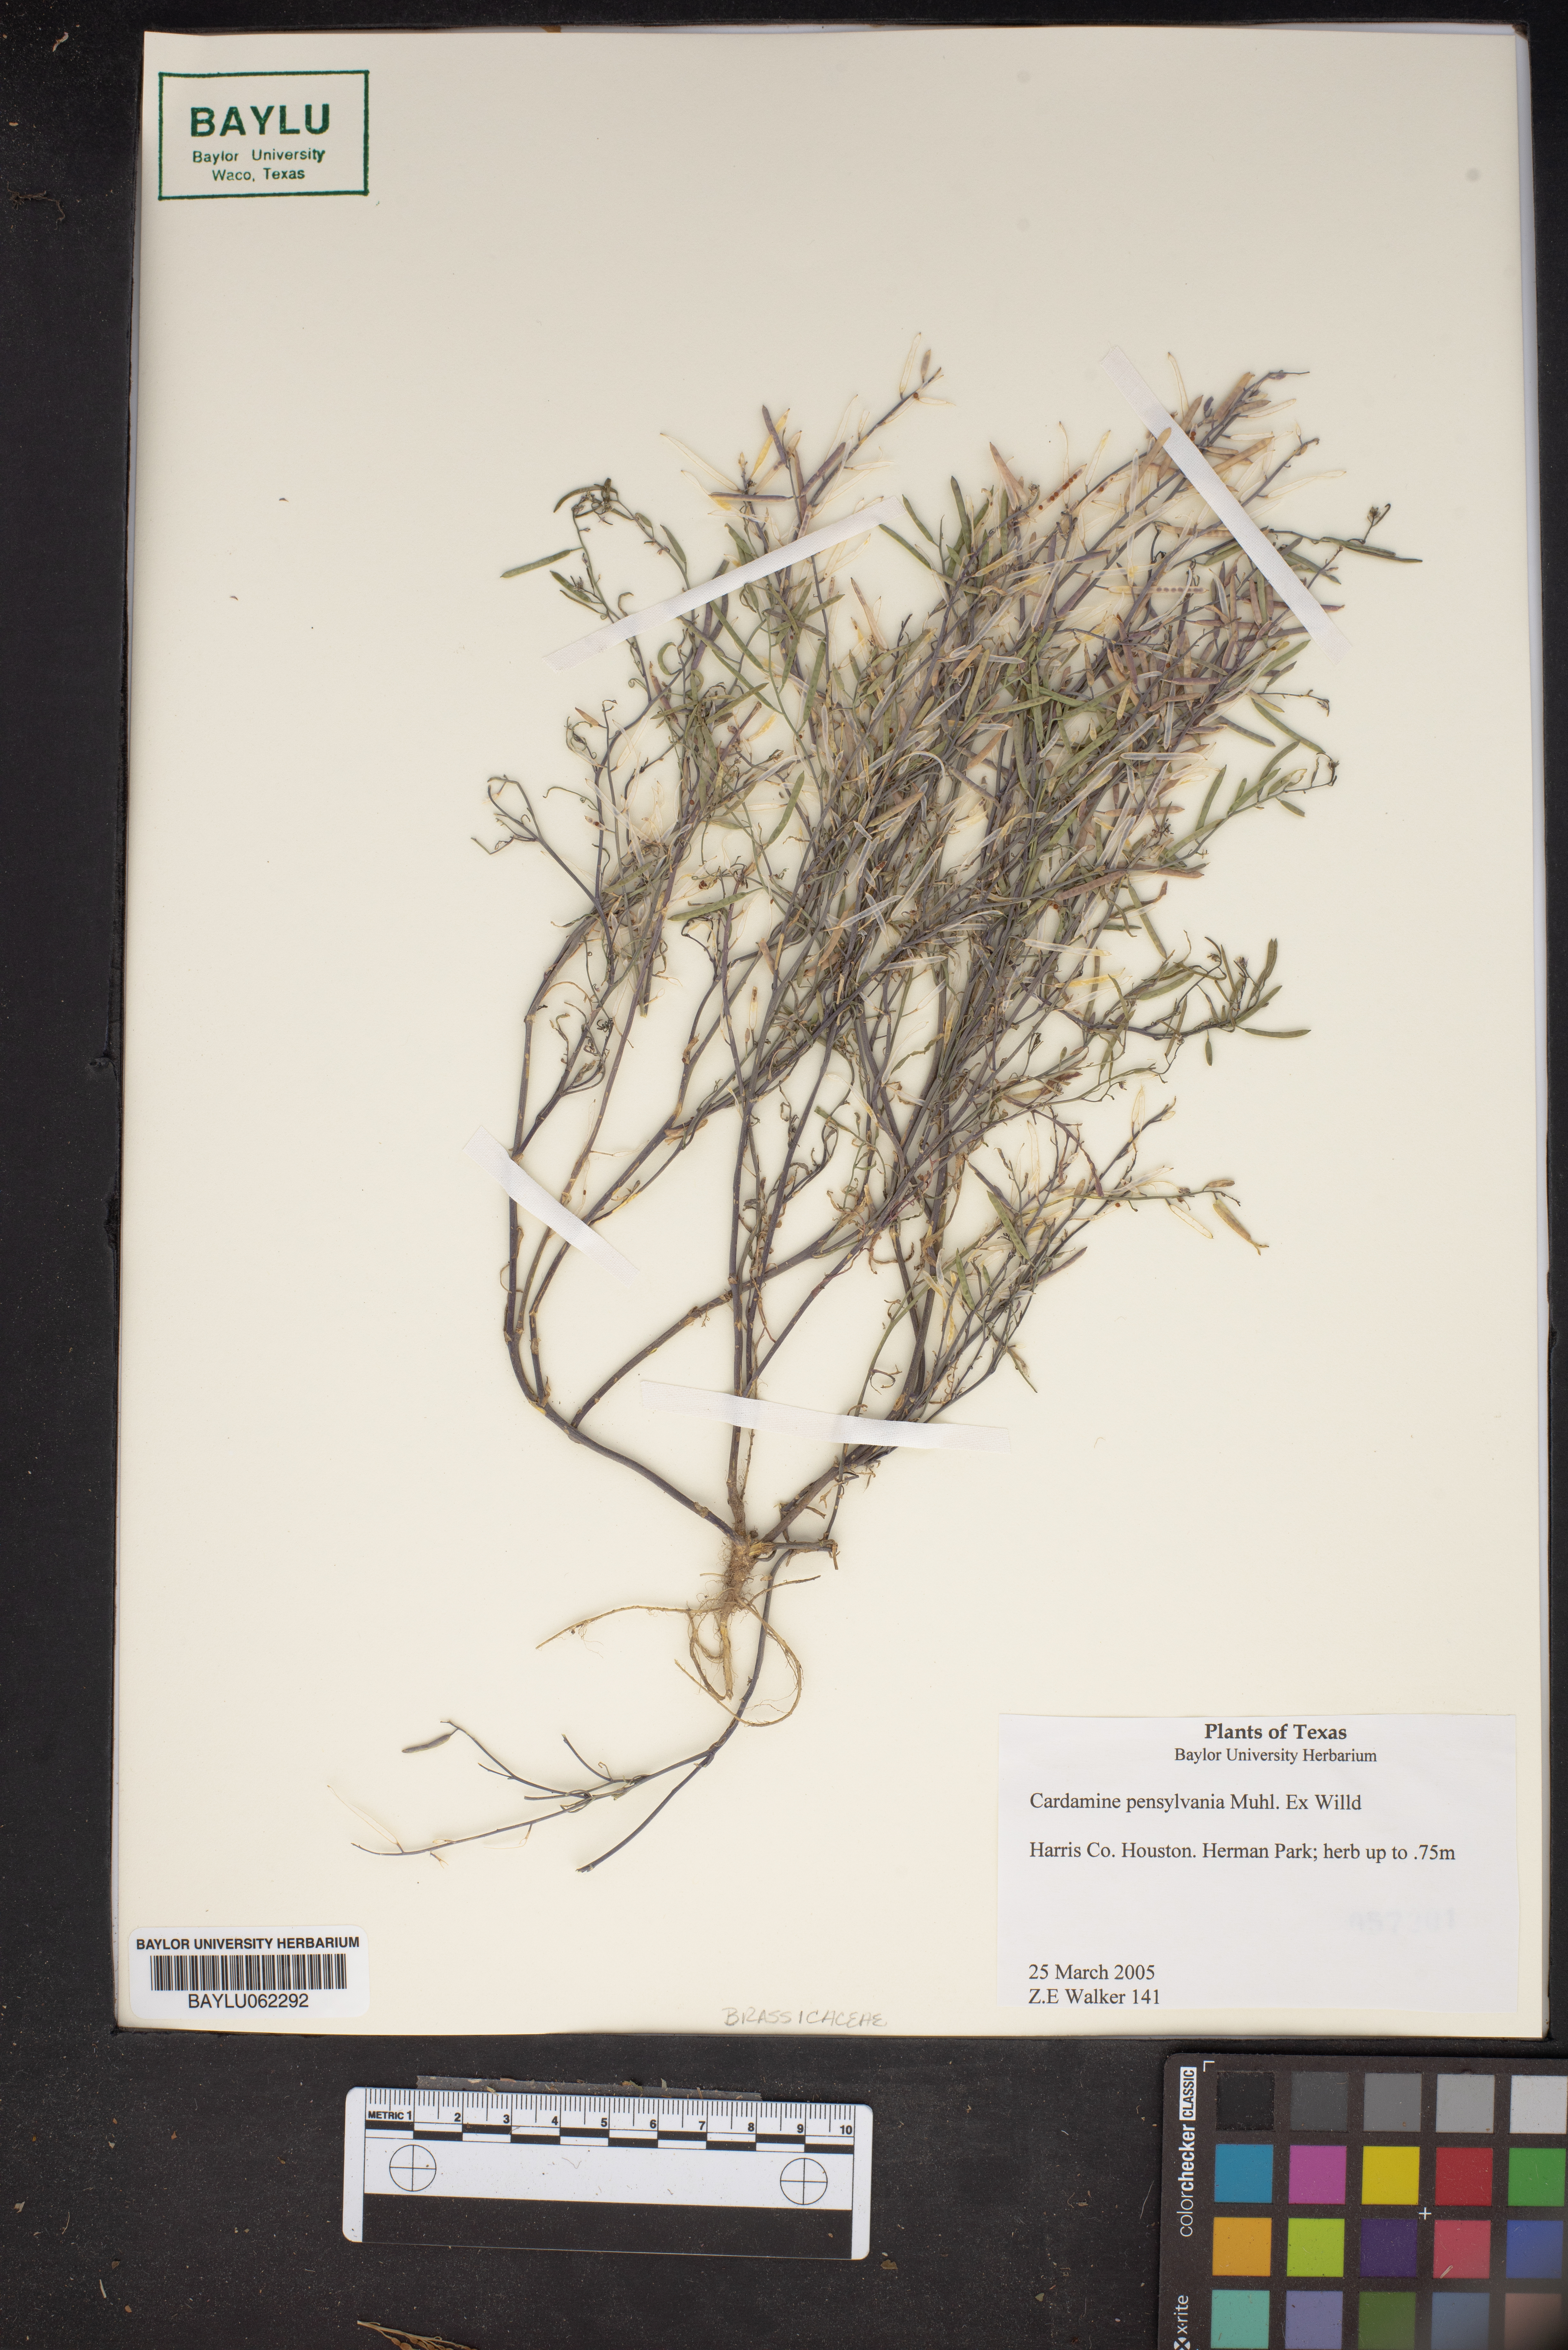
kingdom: Plantae
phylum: Tracheophyta
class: Magnoliopsida
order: Brassicales
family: Brassicaceae
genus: Cardamine
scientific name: Cardamine pensylvanica
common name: Pennsylvania bittercress
